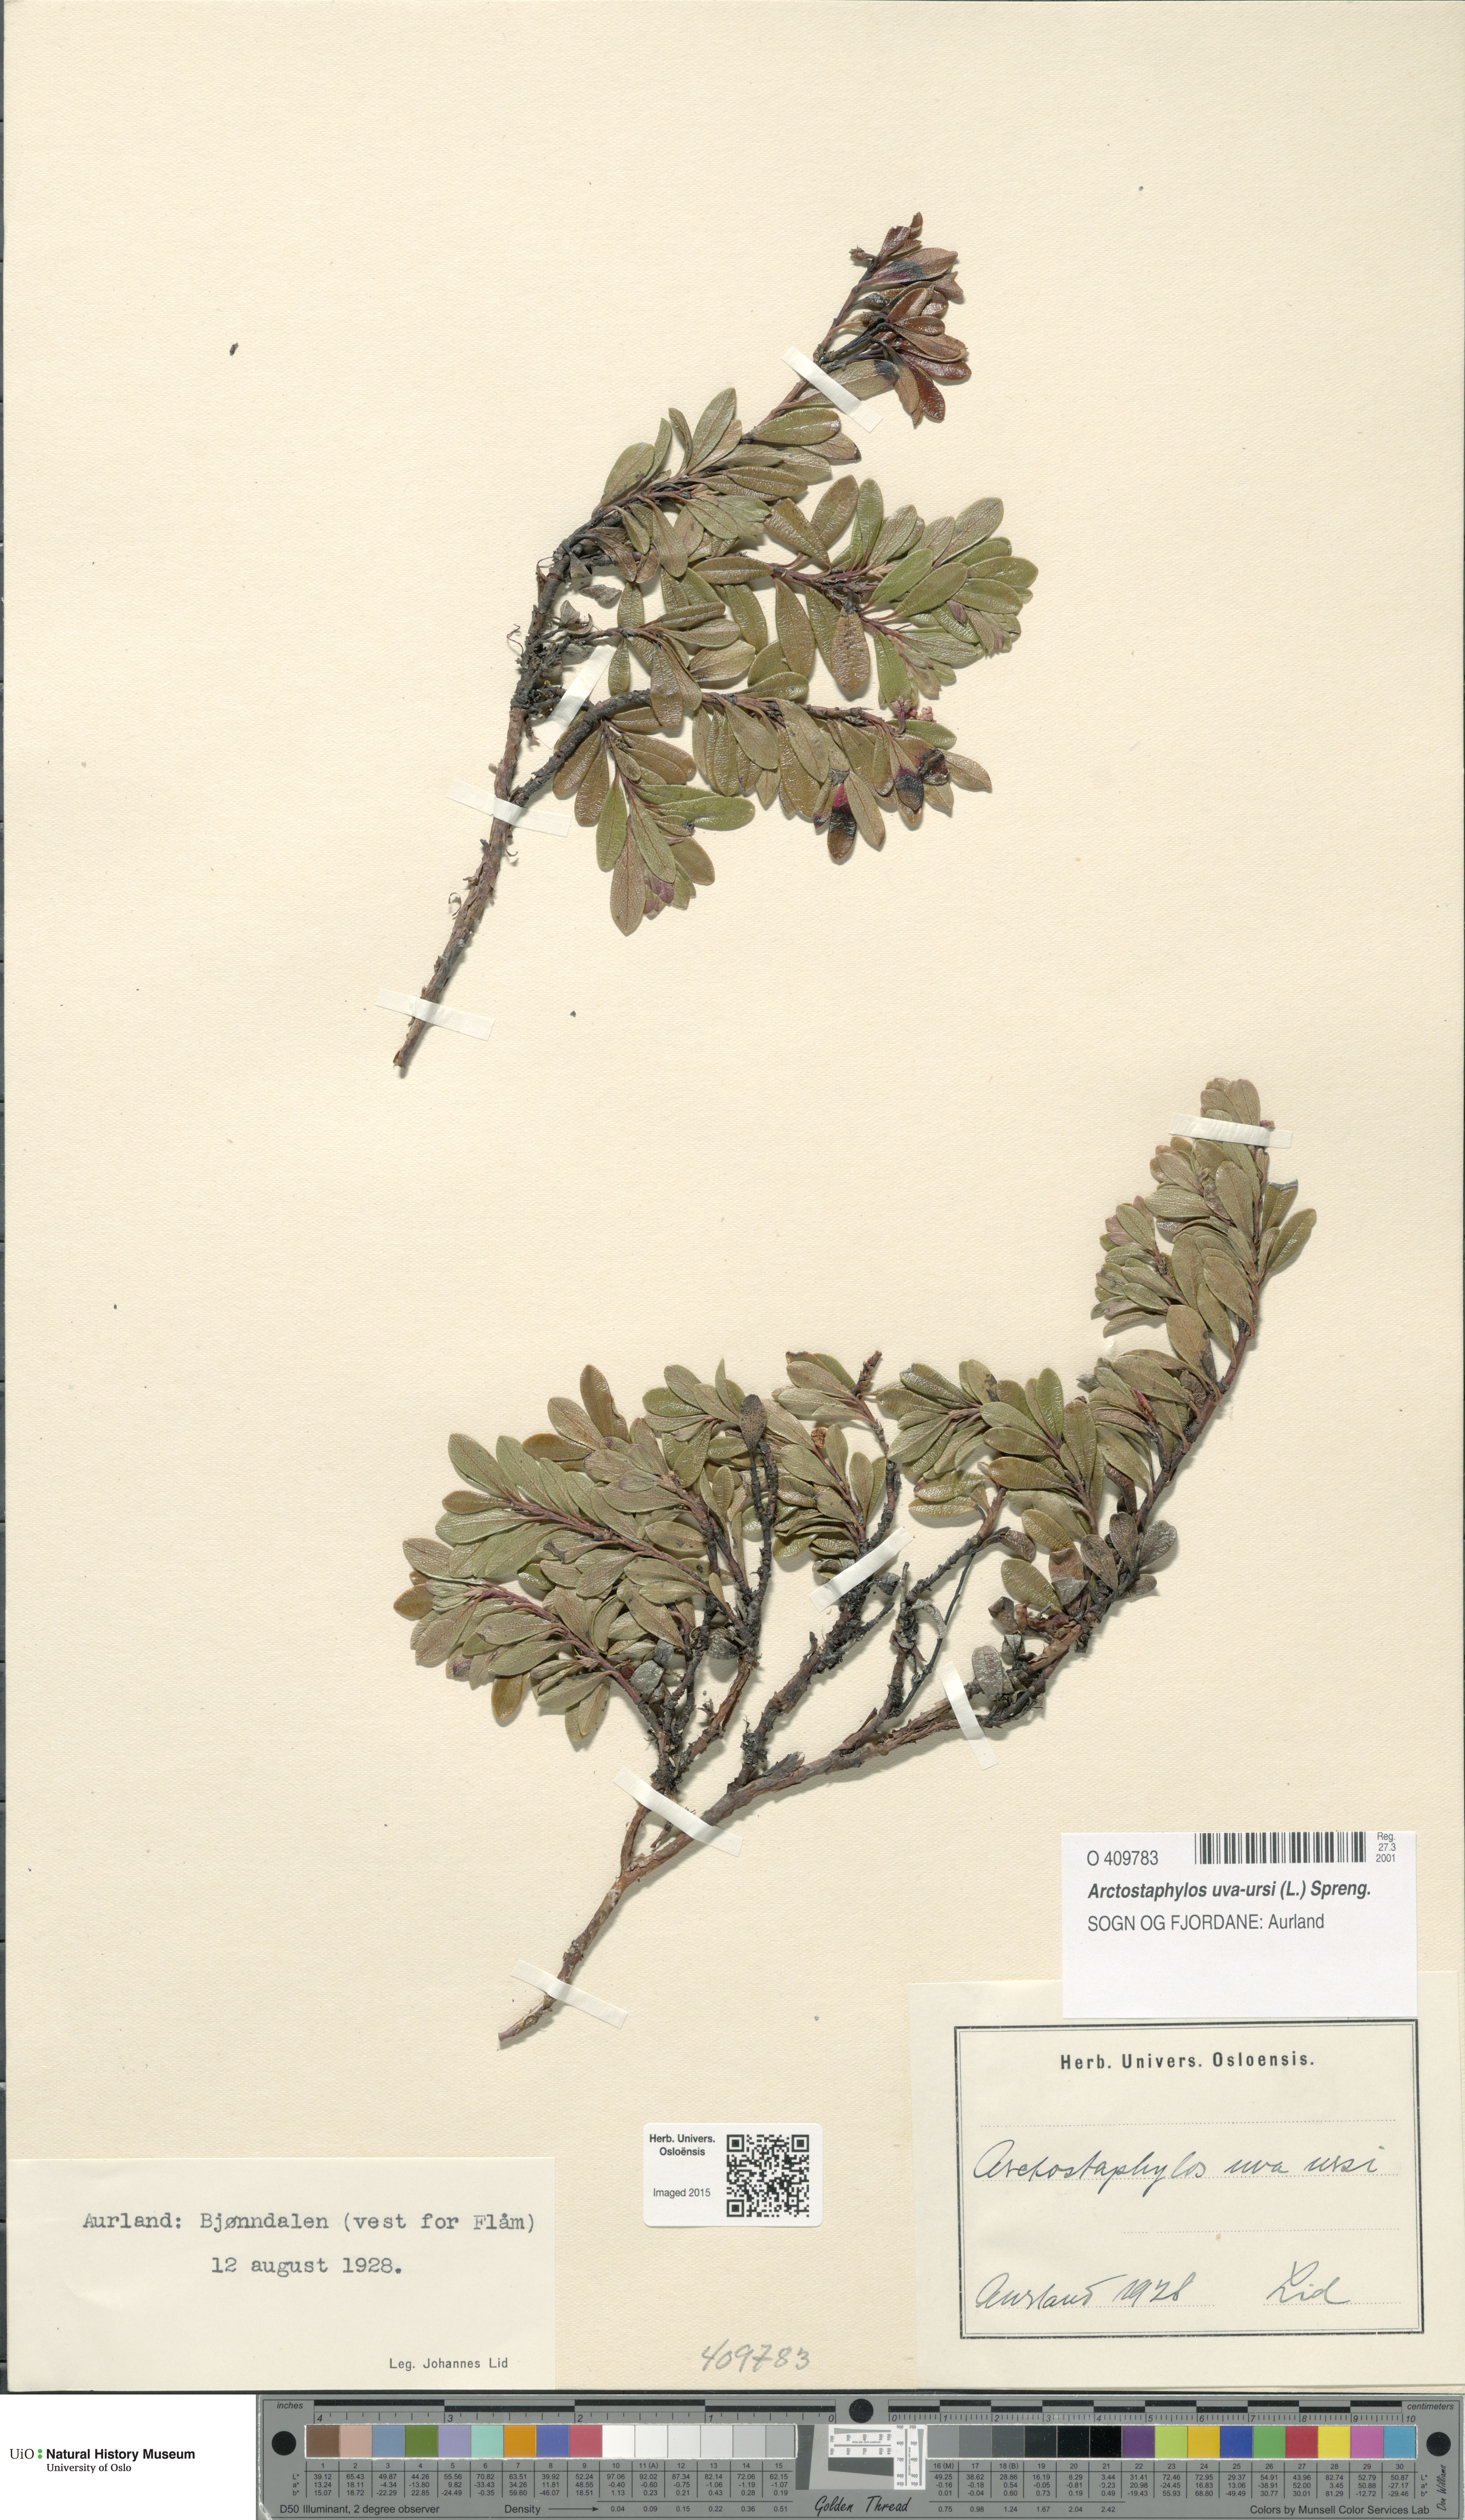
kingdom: Plantae
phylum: Tracheophyta
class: Magnoliopsida
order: Ericales
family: Ericaceae
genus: Arctostaphylos
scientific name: Arctostaphylos uva-ursi
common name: Bearberry
